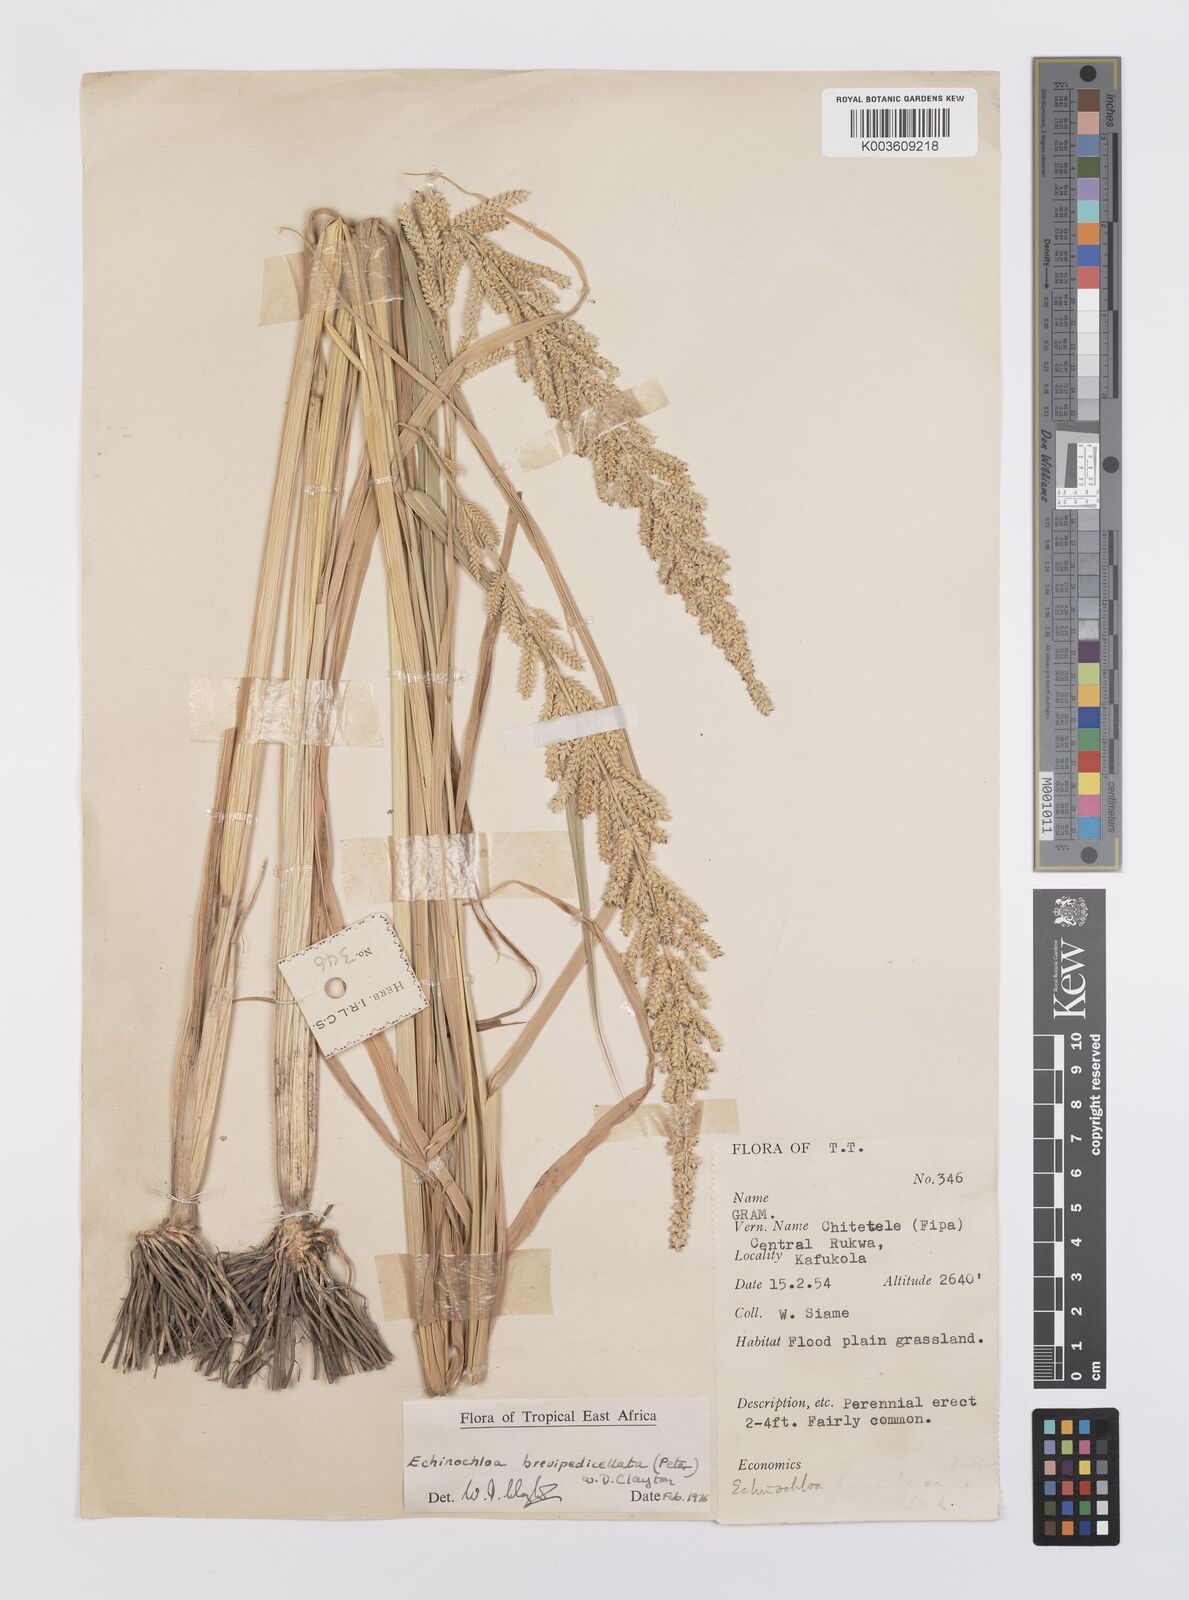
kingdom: Plantae
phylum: Tracheophyta
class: Liliopsida
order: Poales
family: Poaceae
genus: Echinochloa
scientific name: Echinochloa brevipedicellata
